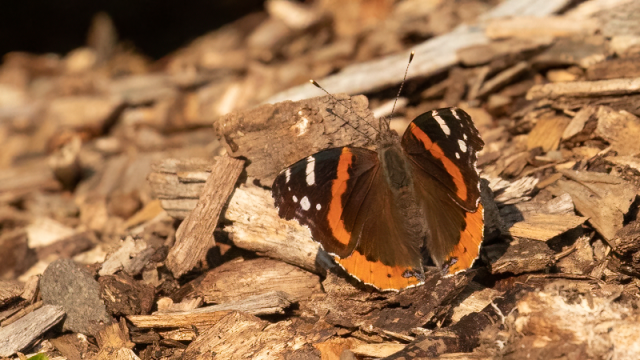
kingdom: Animalia
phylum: Arthropoda
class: Insecta
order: Lepidoptera
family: Nymphalidae
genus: Vanessa
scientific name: Vanessa atalanta
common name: Red Admiral
